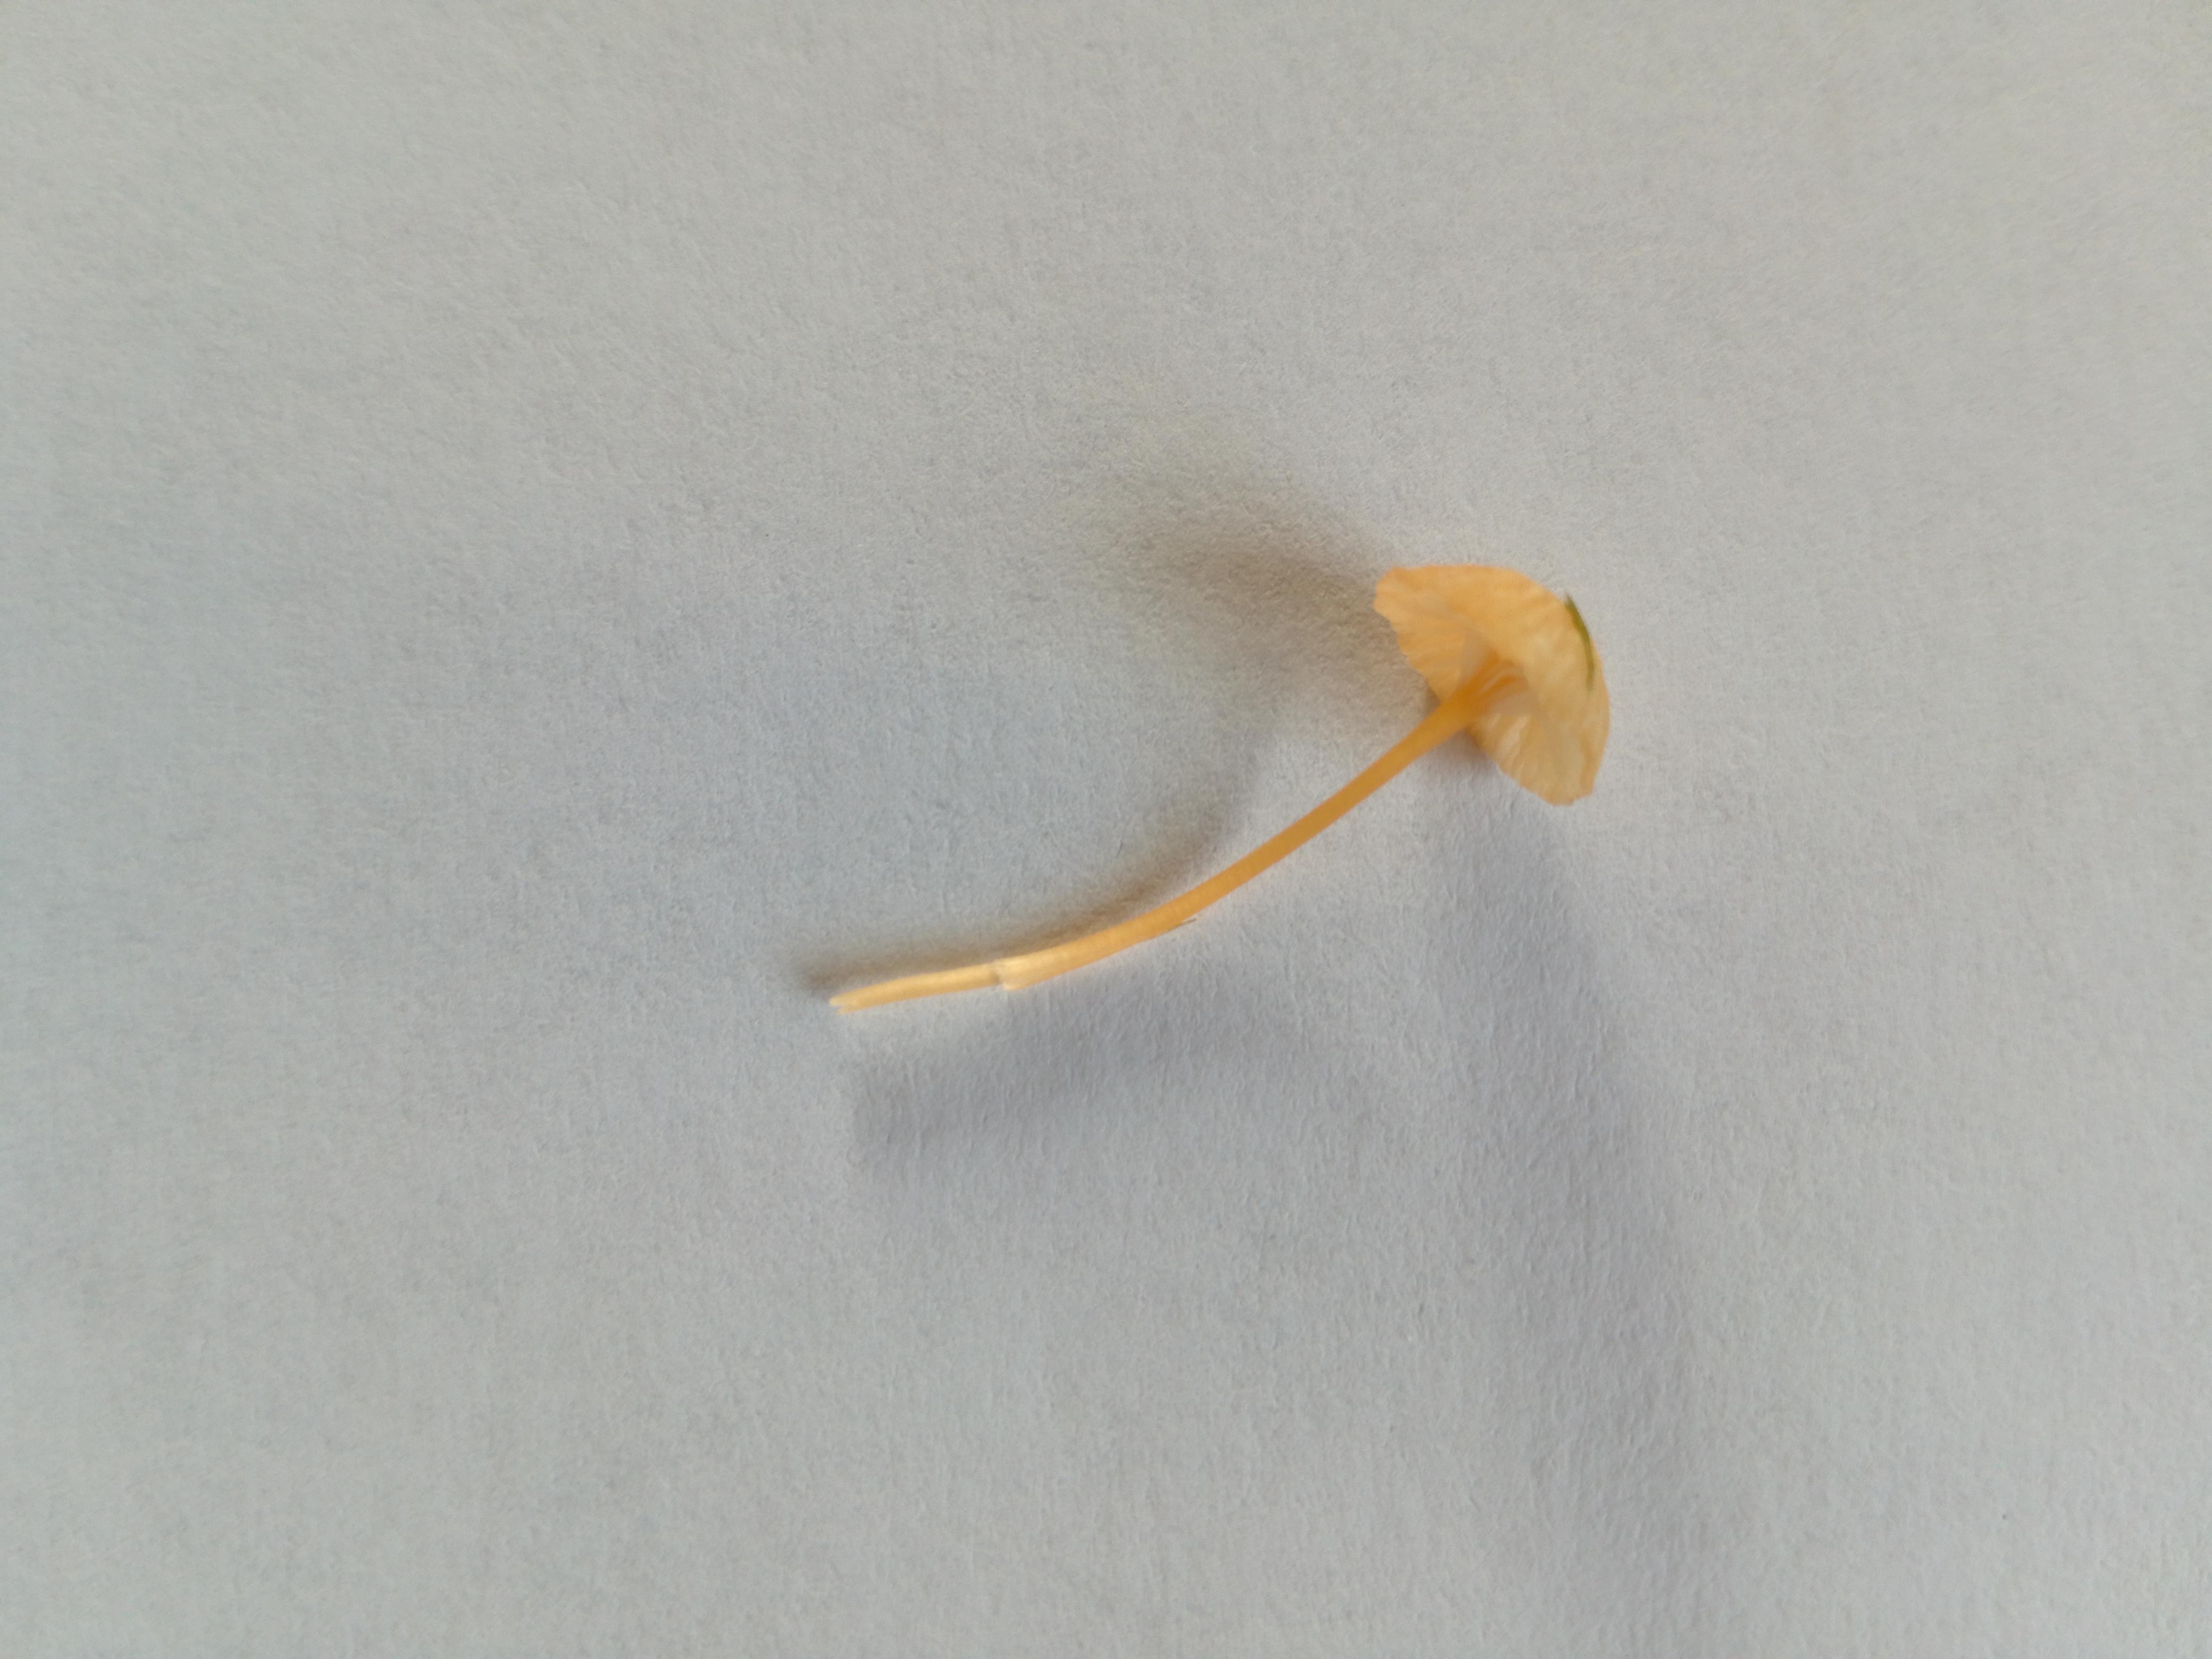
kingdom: Fungi
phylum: Basidiomycota
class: Agaricomycetes
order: Hymenochaetales
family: Rickenellaceae
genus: Rickenella
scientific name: Rickenella fibula
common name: orange mosnavlehat
